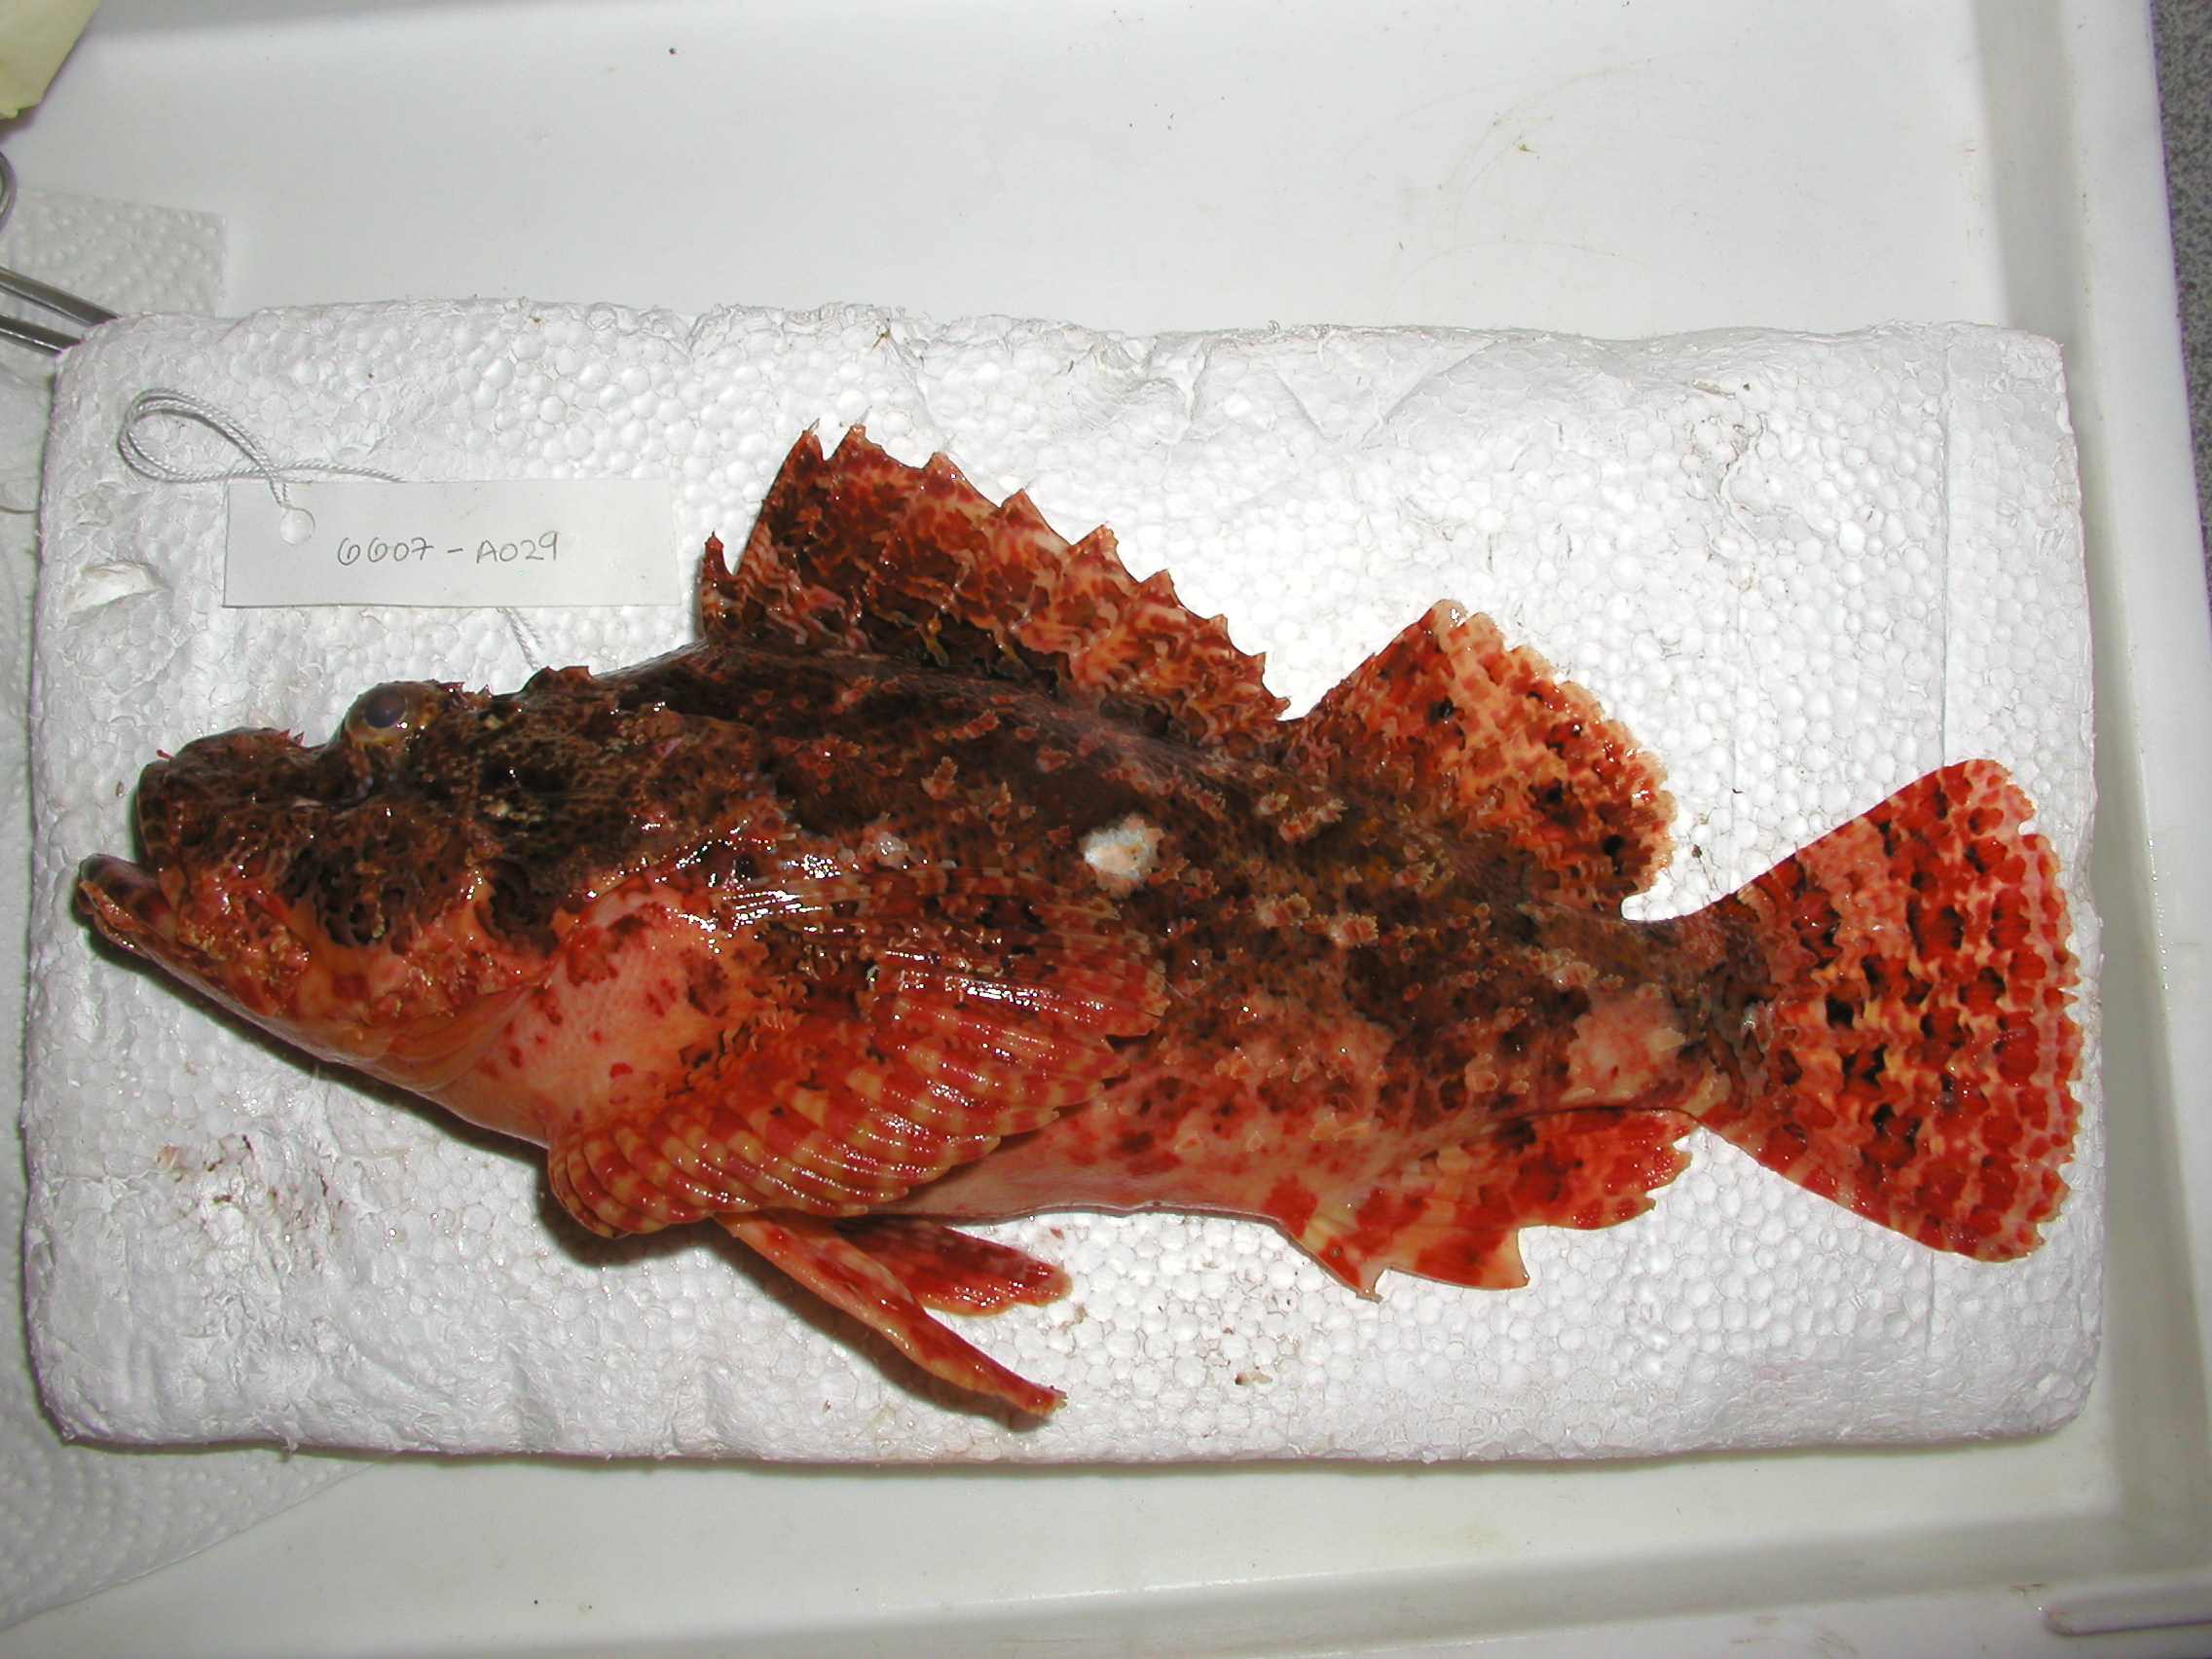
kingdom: Animalia
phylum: Chordata
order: Scorpaeniformes
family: Scorpaenidae
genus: Scorpaenopsis
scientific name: Scorpaenopsis
